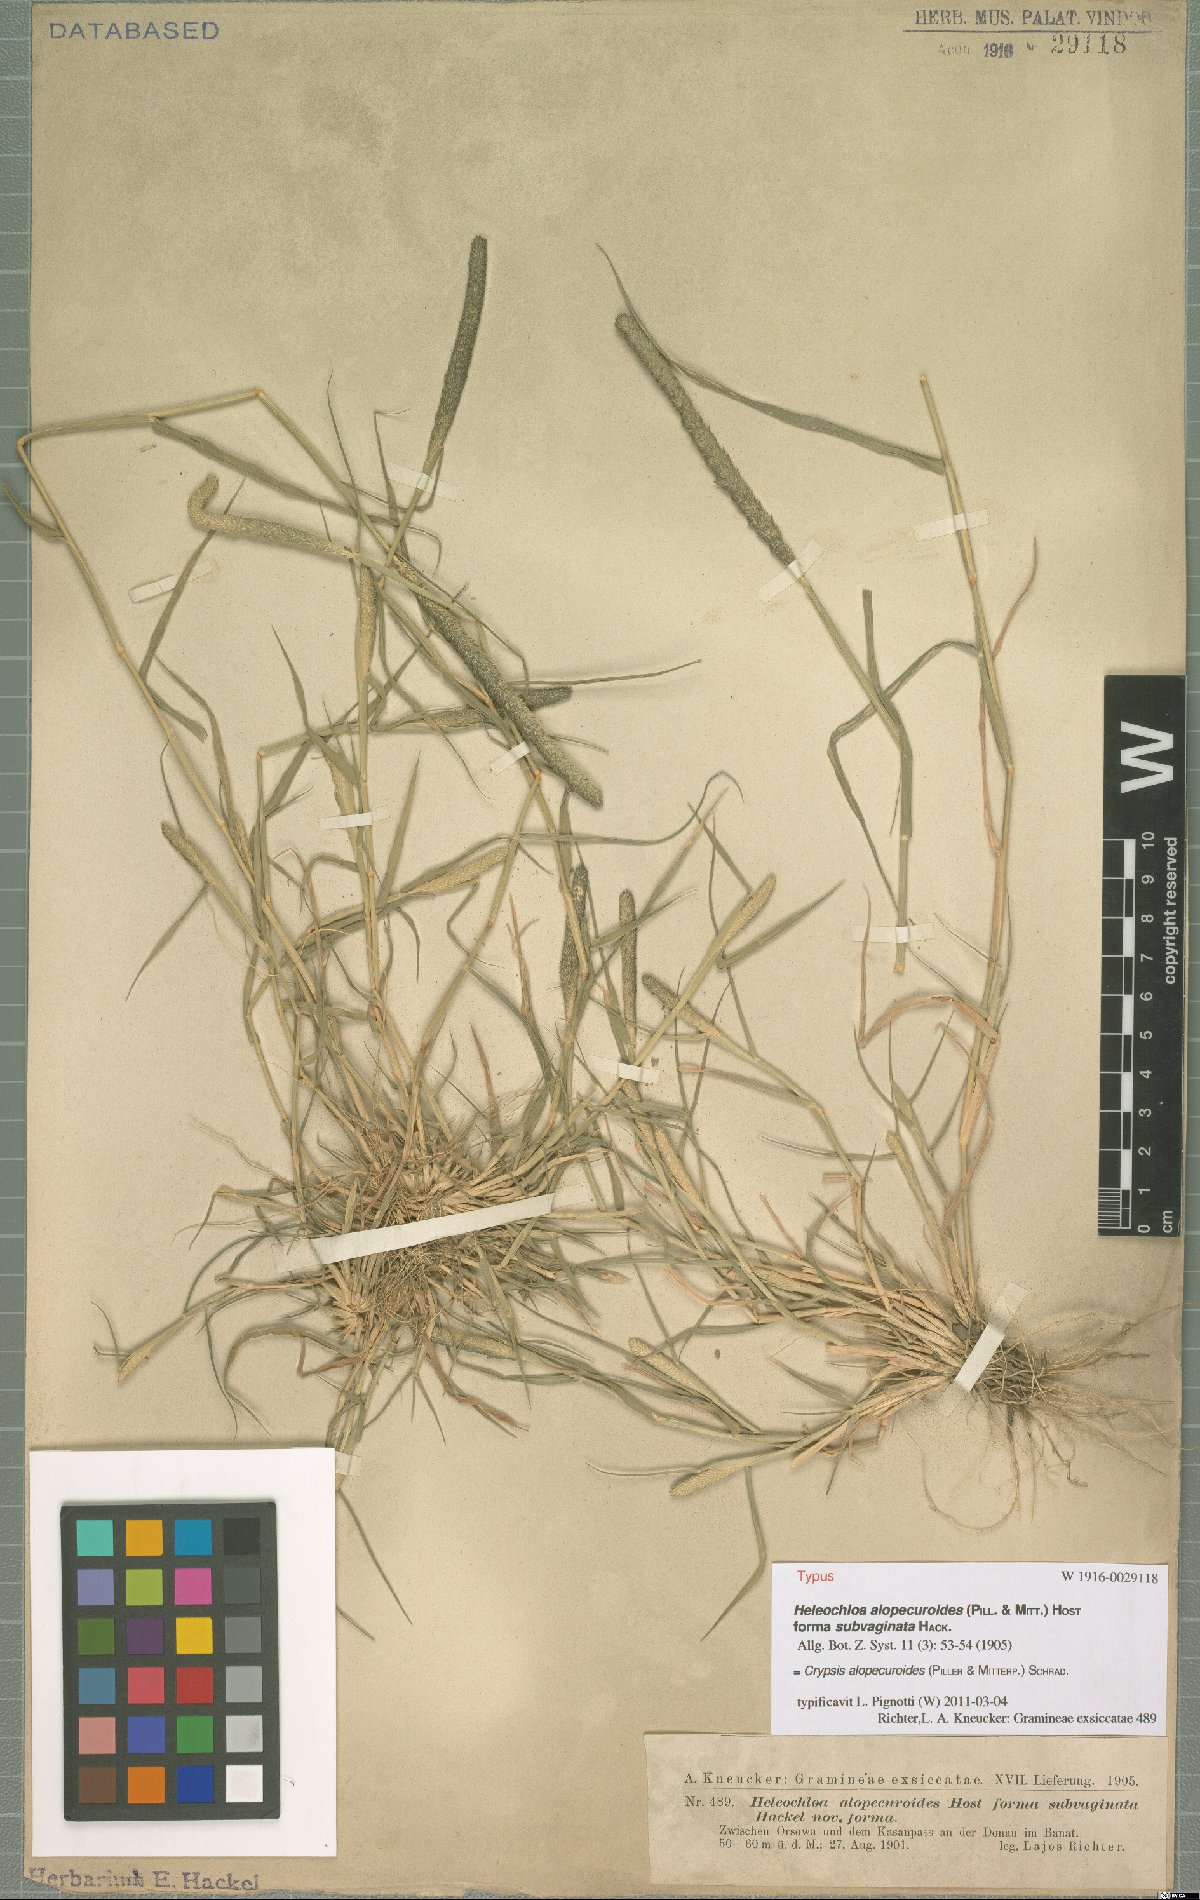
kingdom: Plantae
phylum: Tracheophyta
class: Liliopsida
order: Poales
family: Poaceae
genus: Sporobolus
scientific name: Sporobolus alopecuroides
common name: Foxtail pricklegrass
